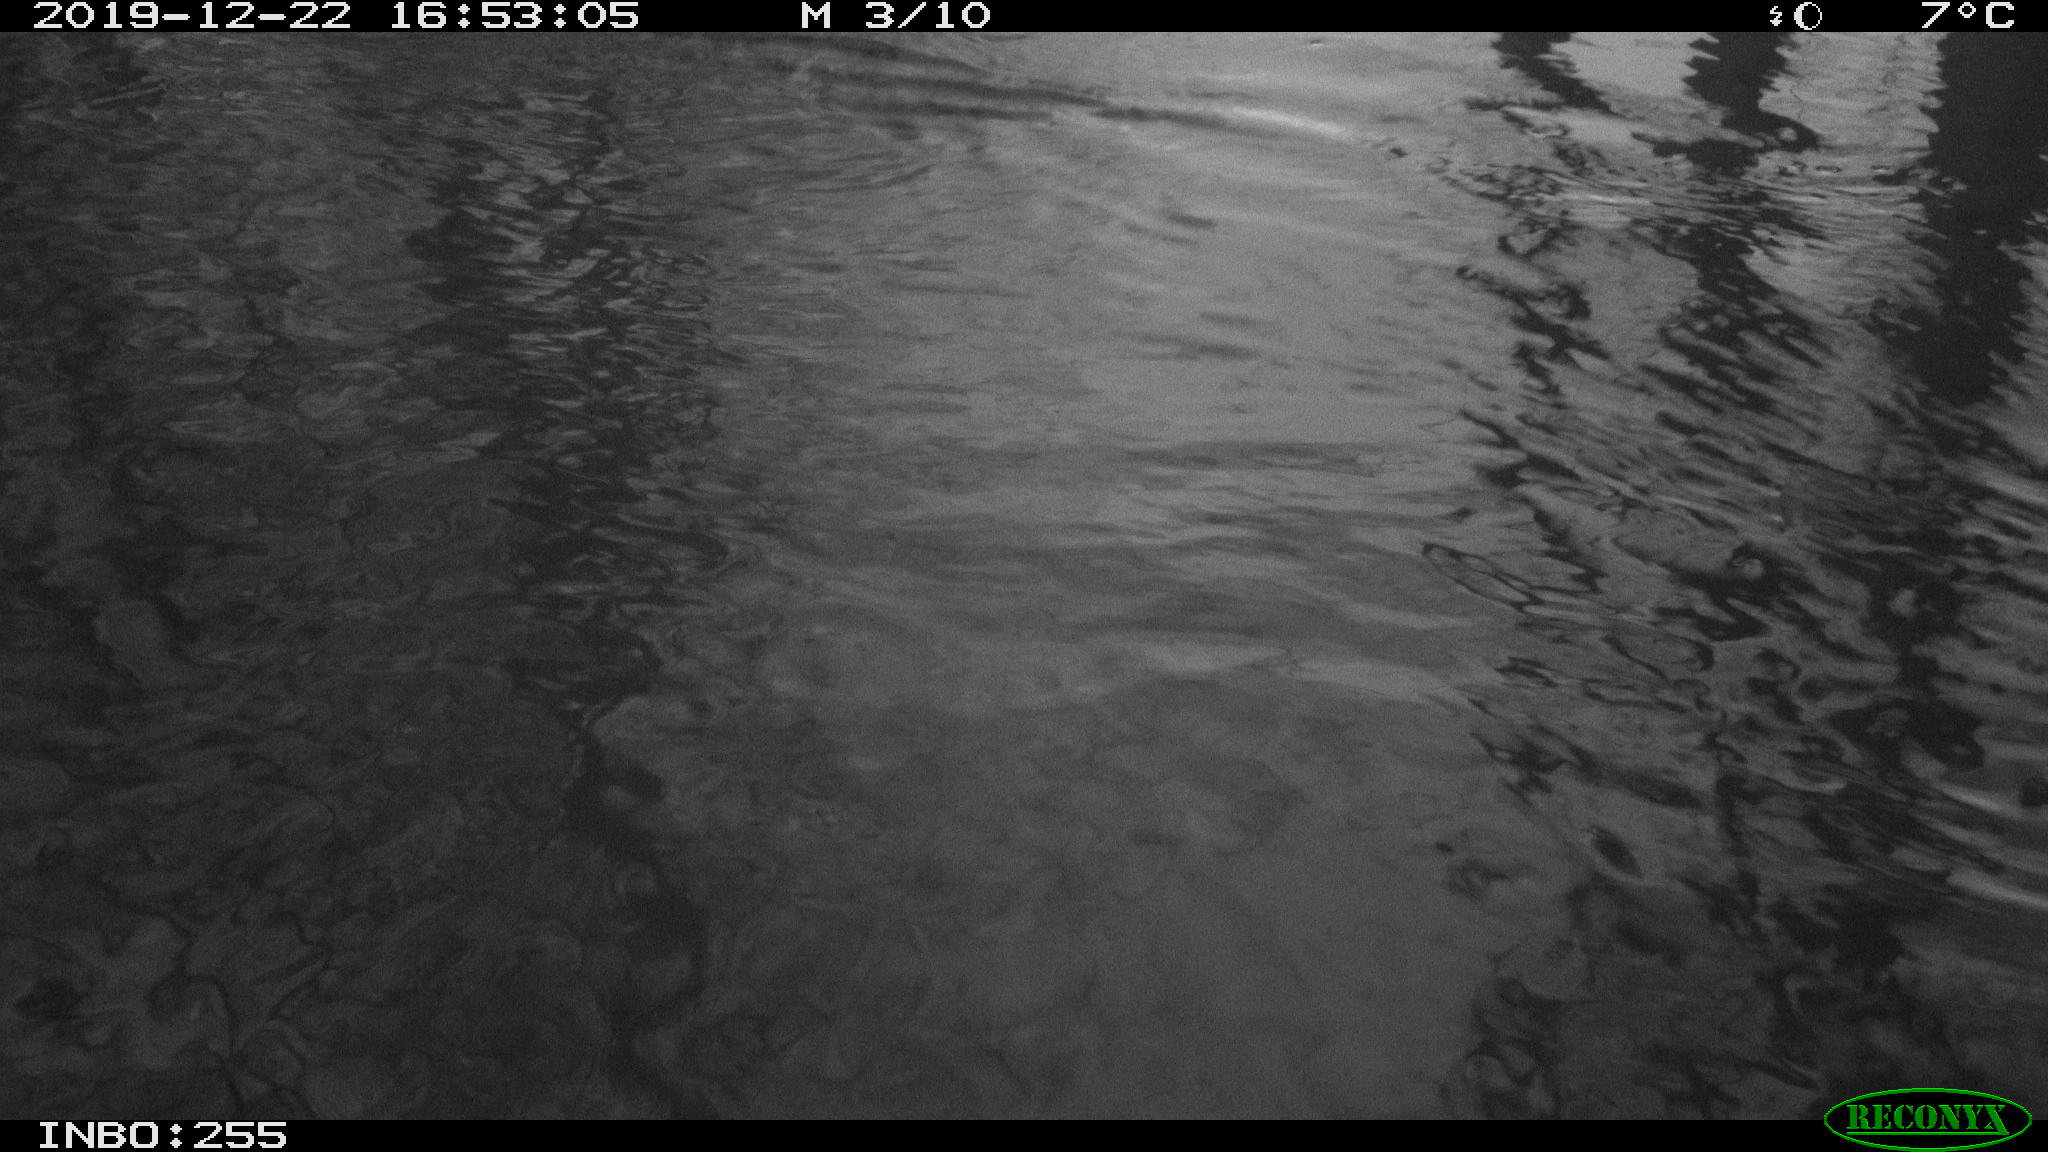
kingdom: Animalia
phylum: Chordata
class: Aves
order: Gruiformes
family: Rallidae
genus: Gallinula
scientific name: Gallinula chloropus
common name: Common moorhen
